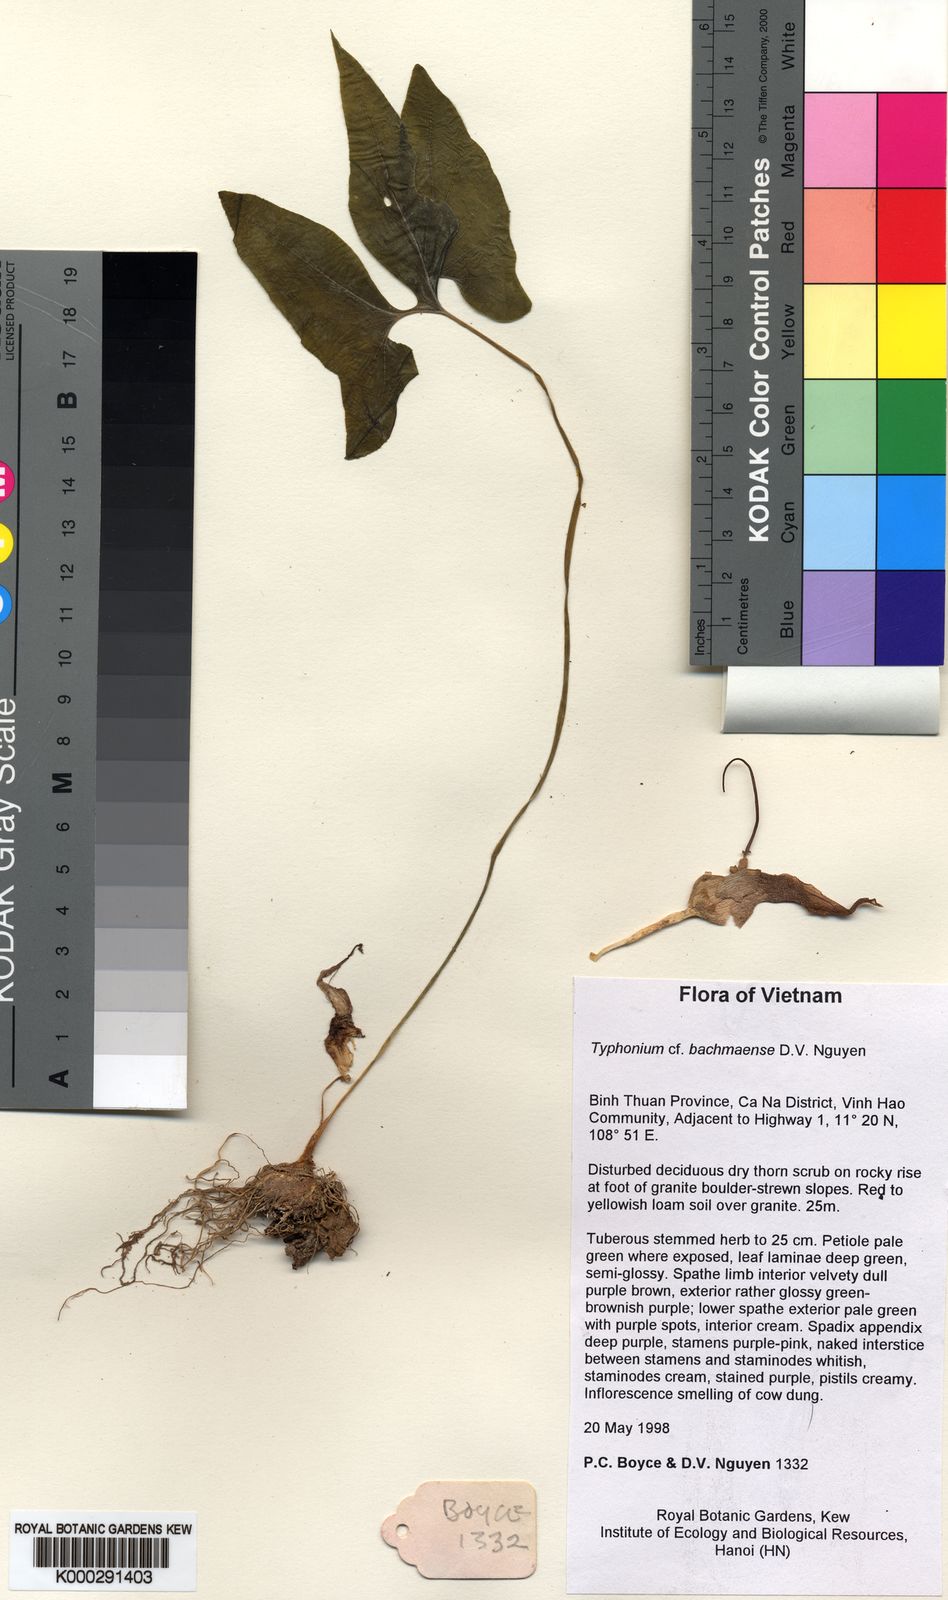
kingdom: Plantae
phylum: Tracheophyta
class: Liliopsida
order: Alismatales
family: Araceae
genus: Typhonium
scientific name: Typhonium penicillatum
